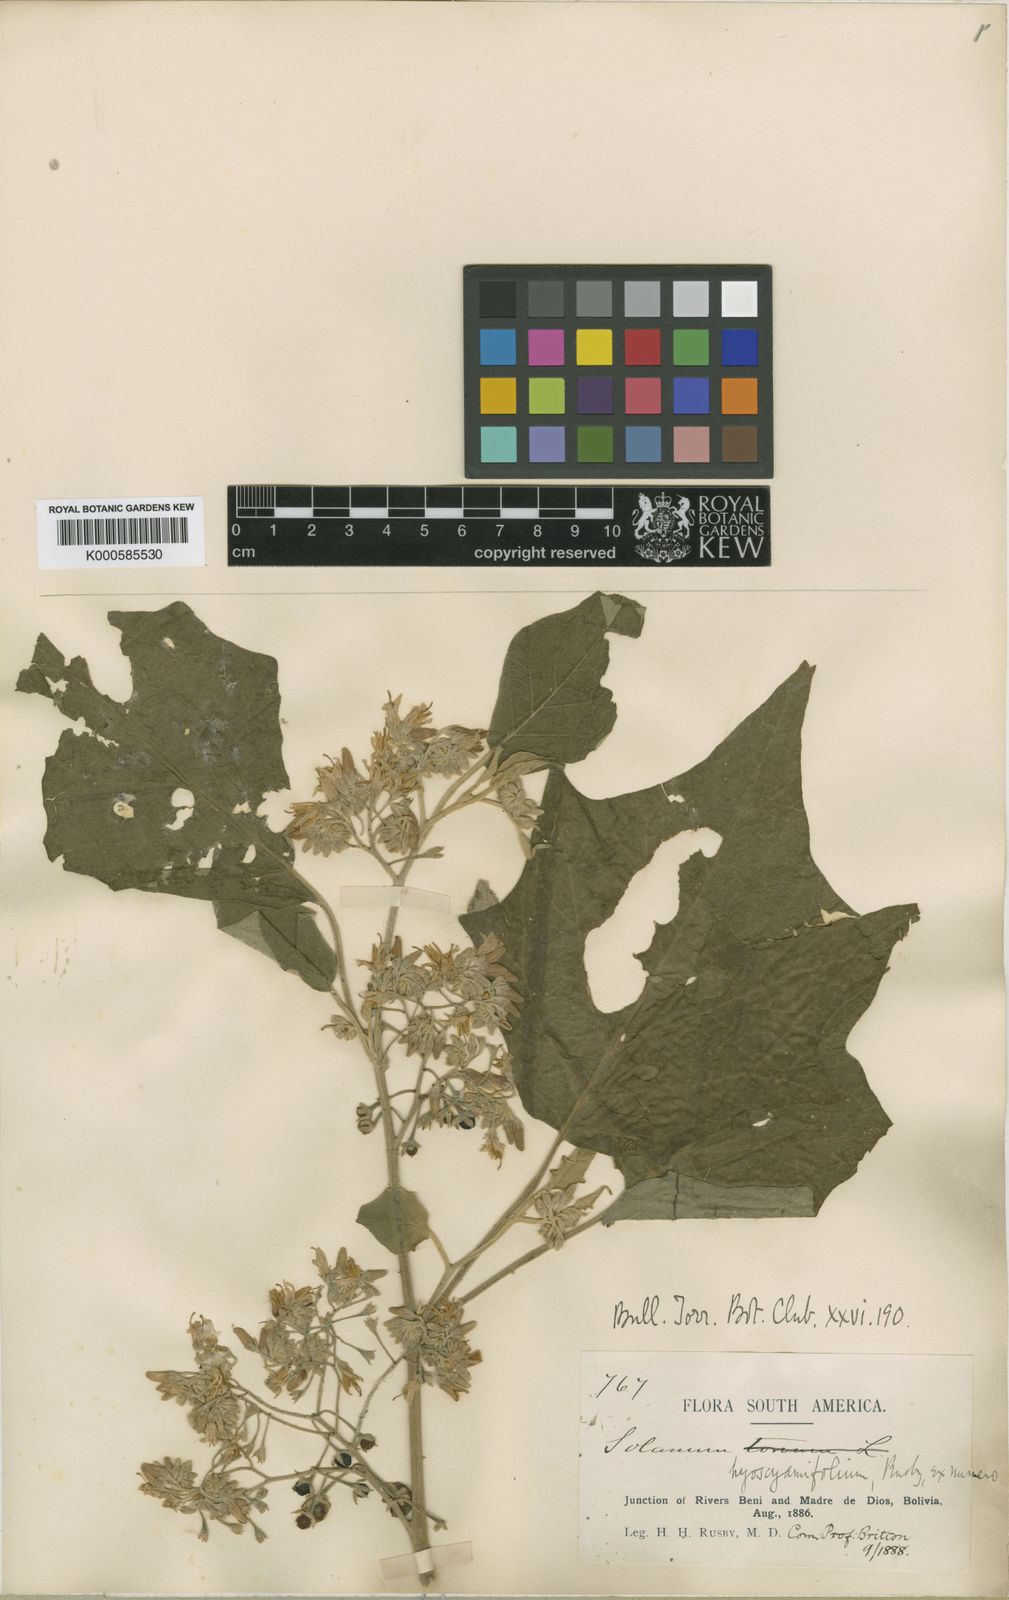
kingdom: Plantae
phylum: Tracheophyta
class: Magnoliopsida
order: Solanales
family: Solanaceae
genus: Solanum
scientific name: Solanum acutilobum
